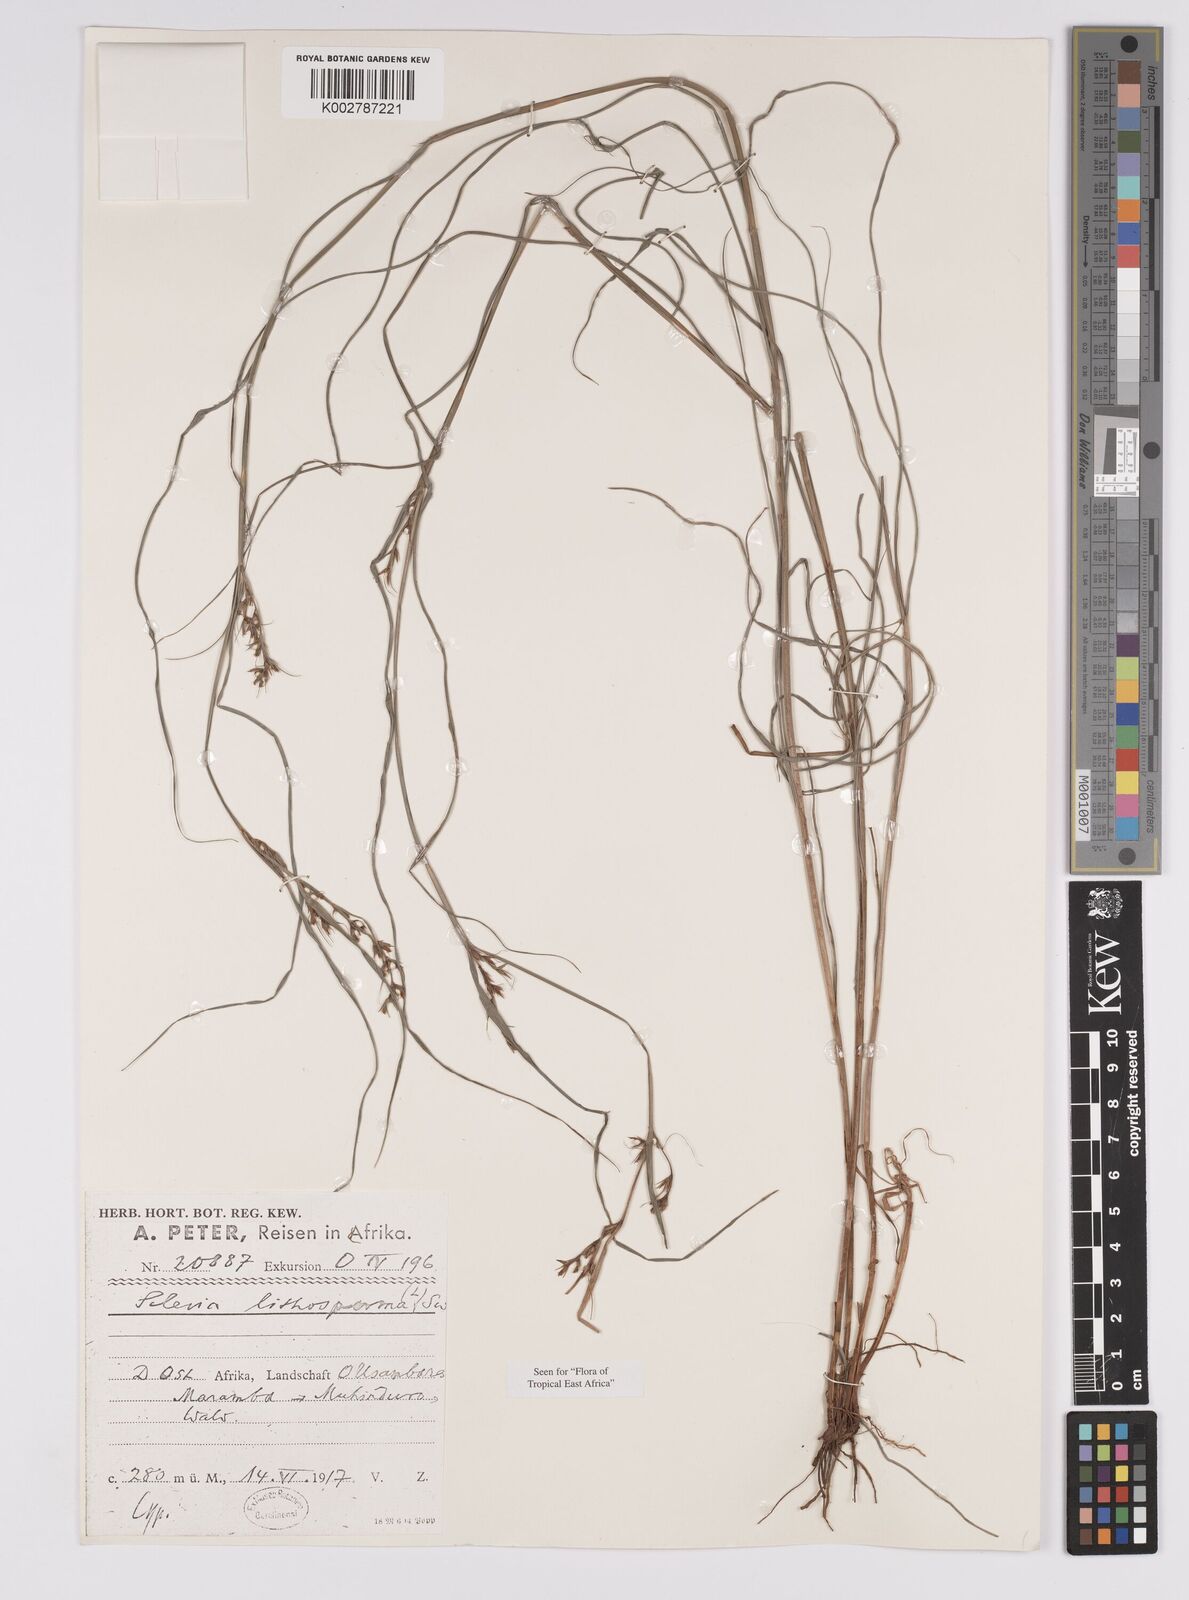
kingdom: Plantae
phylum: Tracheophyta
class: Liliopsida
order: Poales
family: Cyperaceae
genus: Scleria
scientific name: Scleria lithosperma
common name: Florida keys nut-rush
